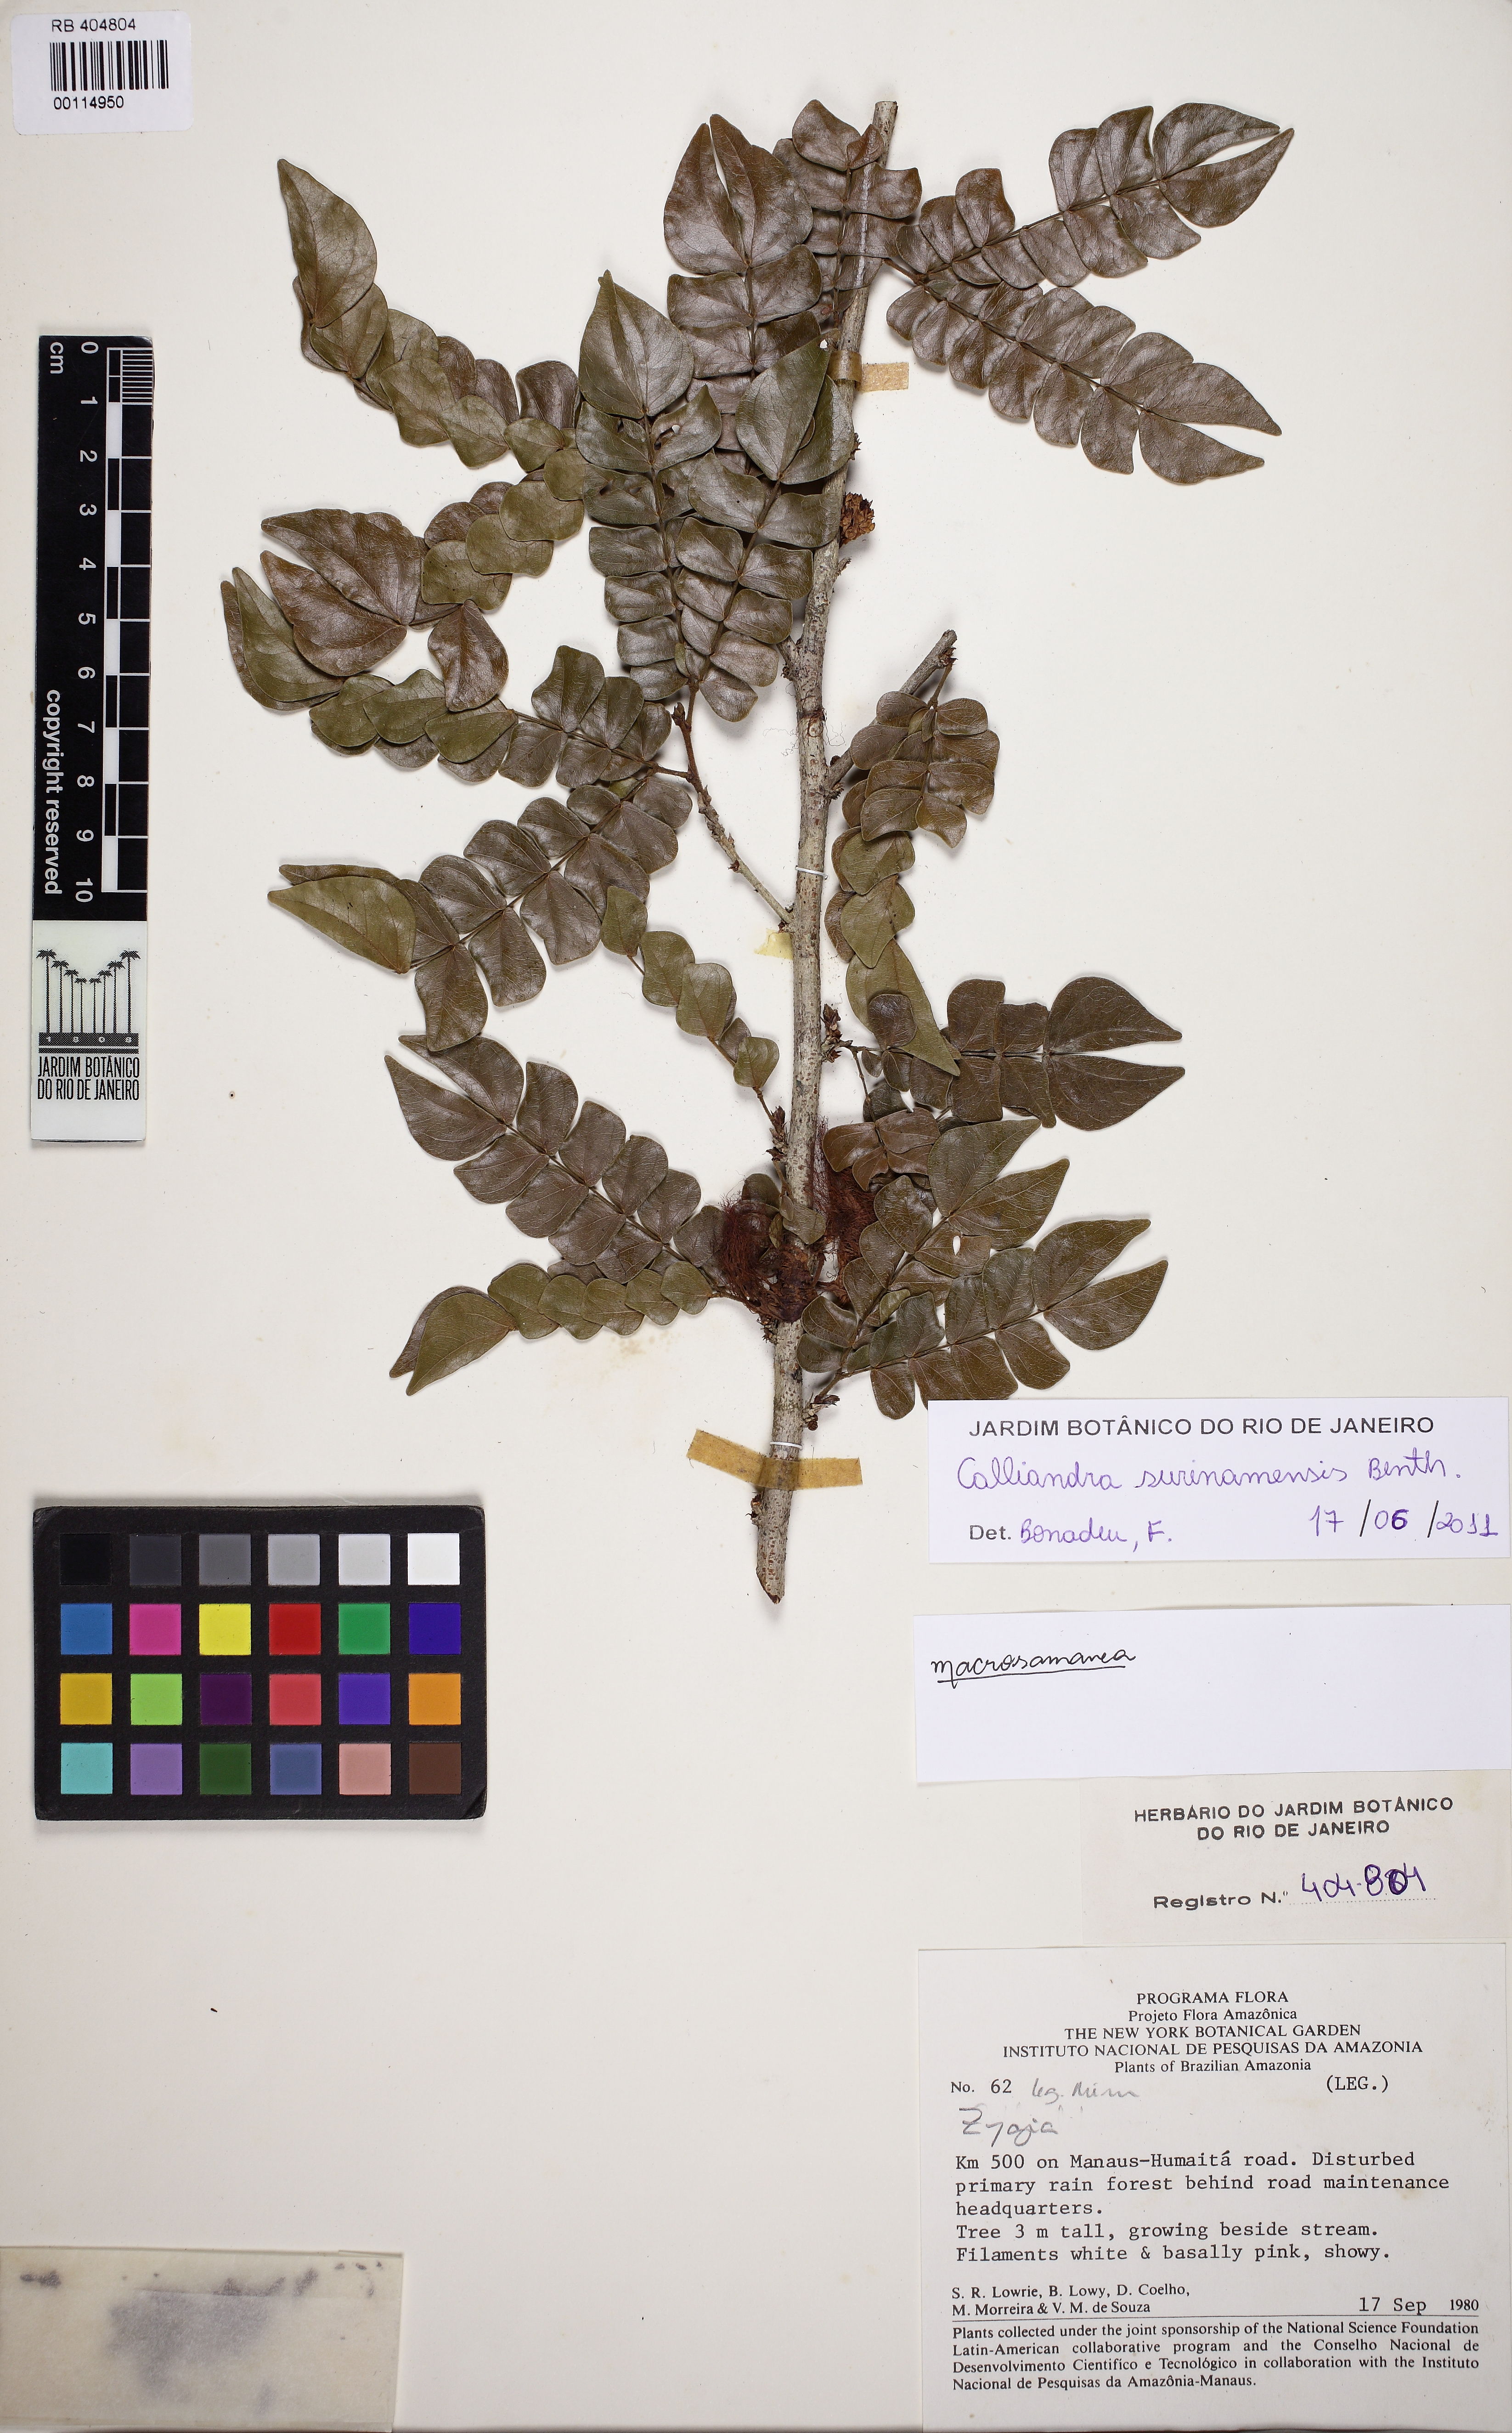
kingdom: Plantae
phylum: Tracheophyta
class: Magnoliopsida
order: Fabales
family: Fabaceae
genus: Calliandra
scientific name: Calliandra surinamensis
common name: Pink powder puff
